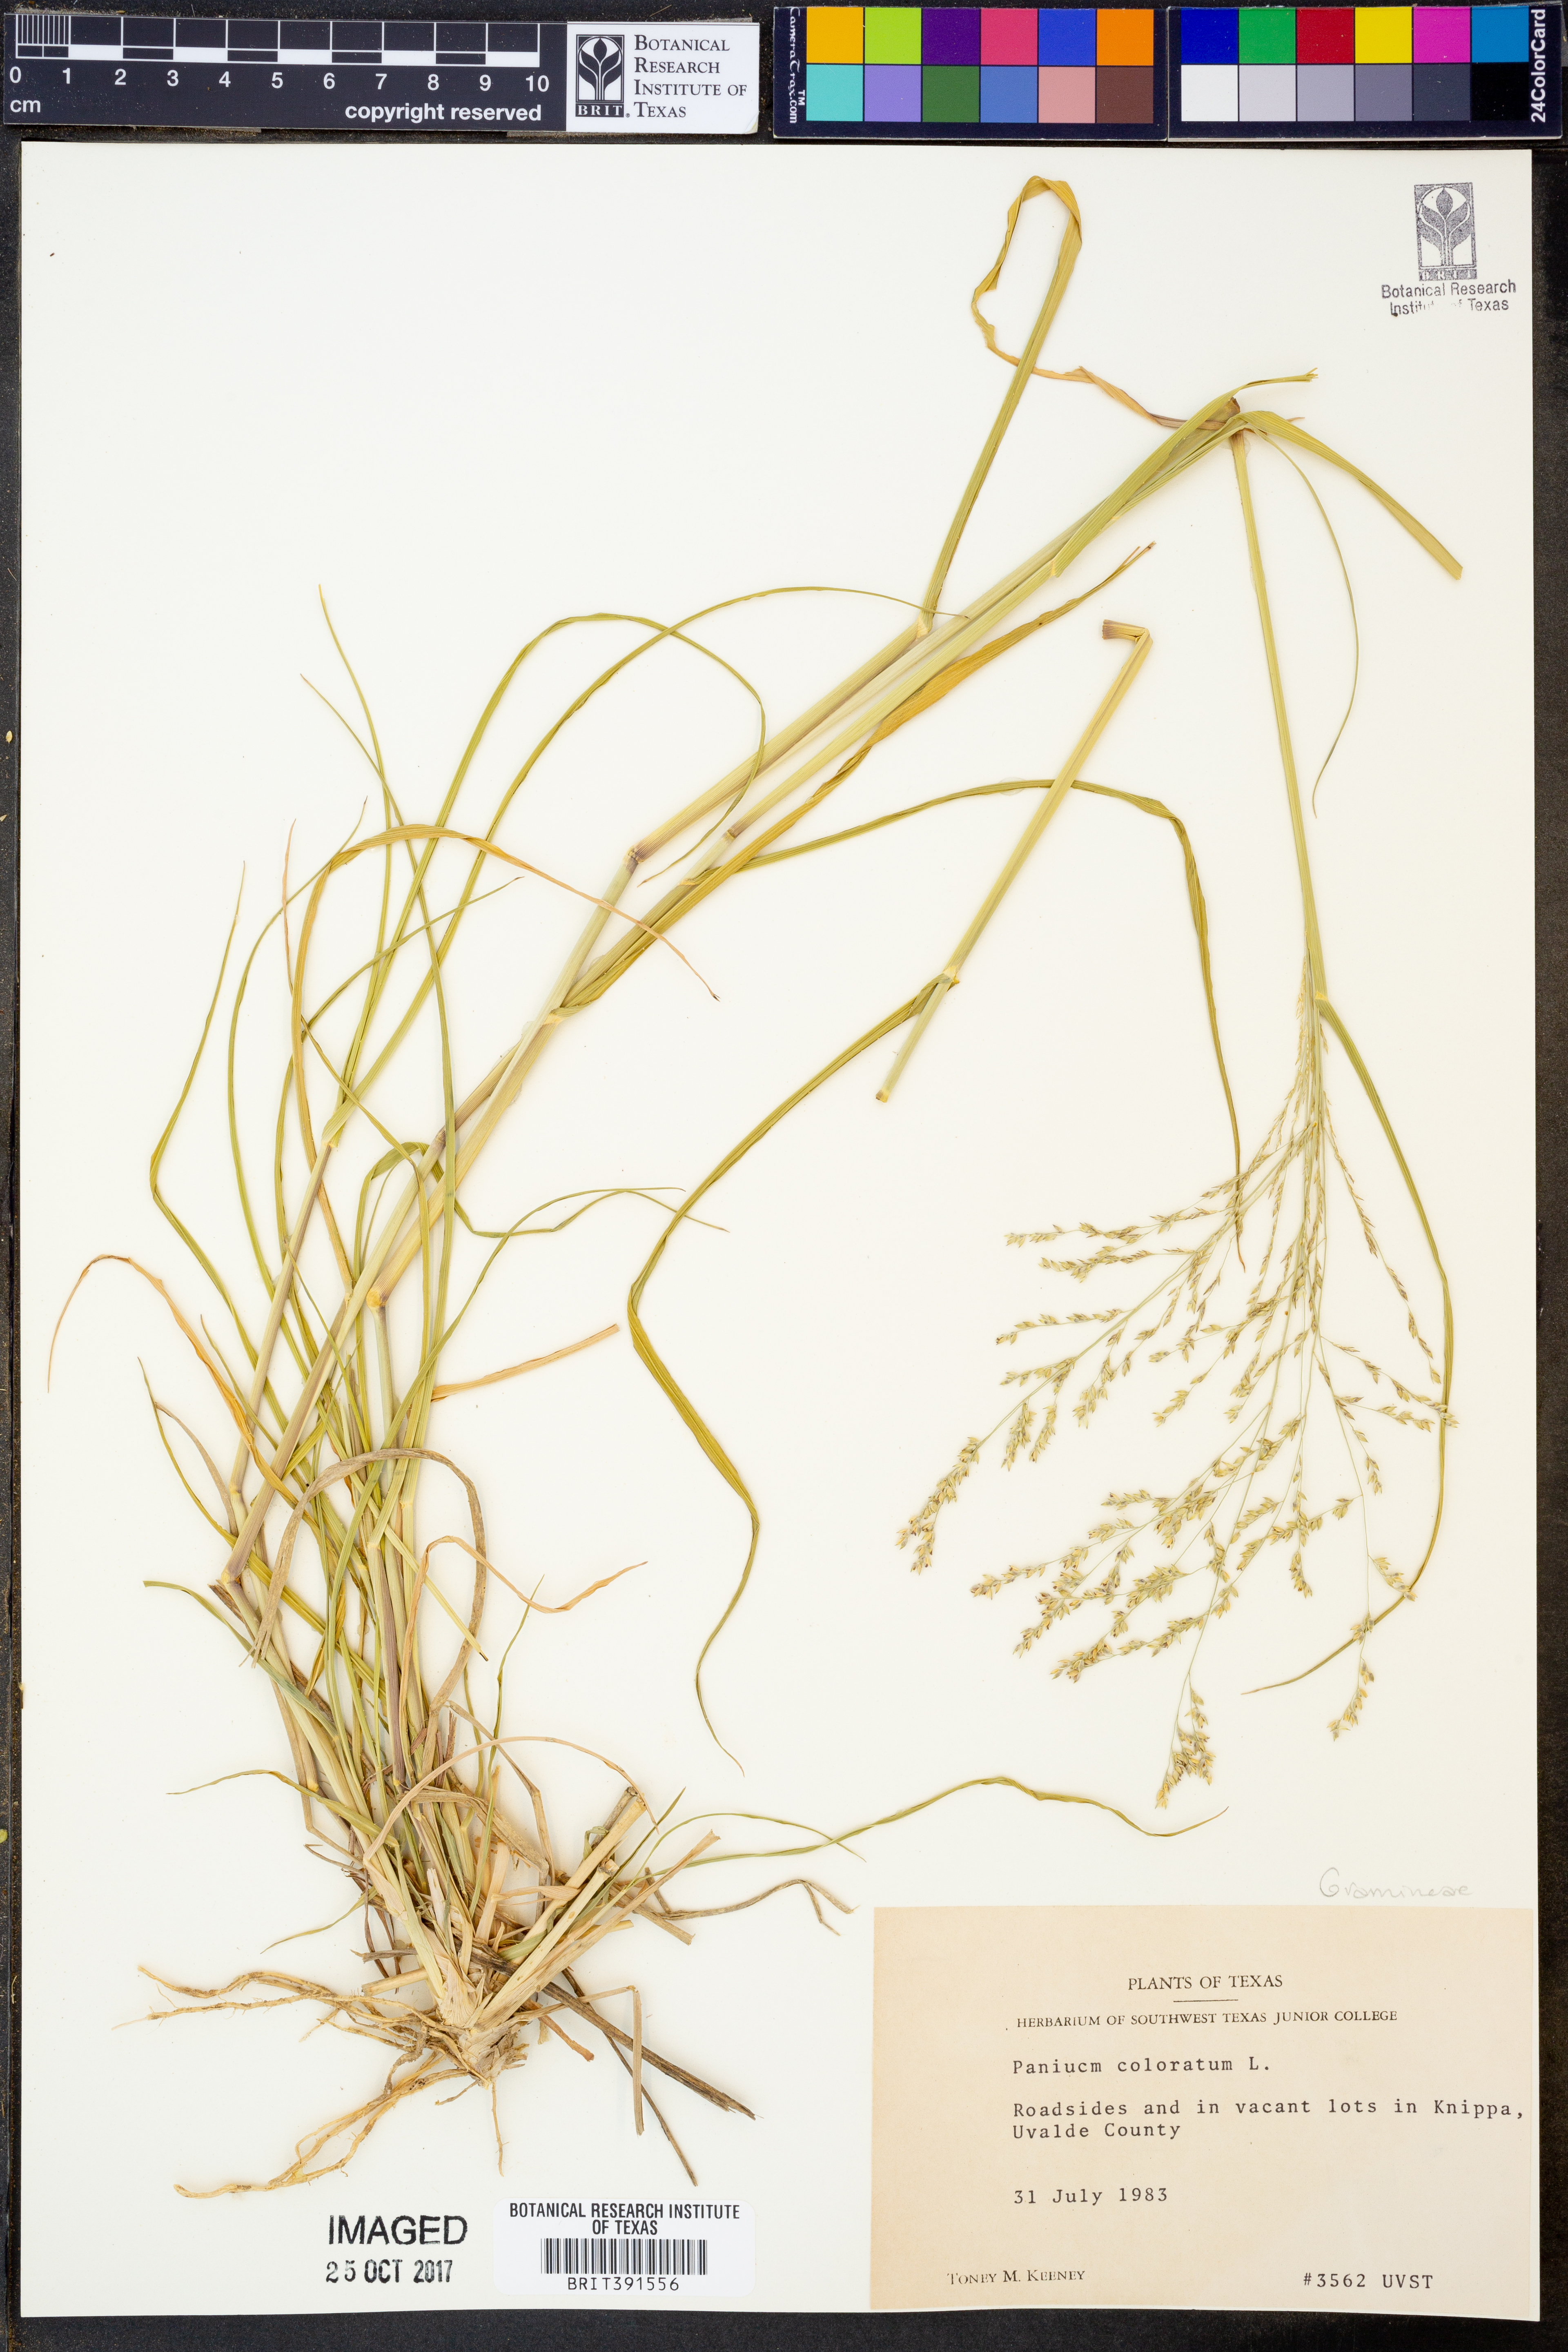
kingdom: Plantae
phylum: Tracheophyta
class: Liliopsida
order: Poales
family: Poaceae
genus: Panicum
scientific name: Panicum coloratum
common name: Kleingrass
